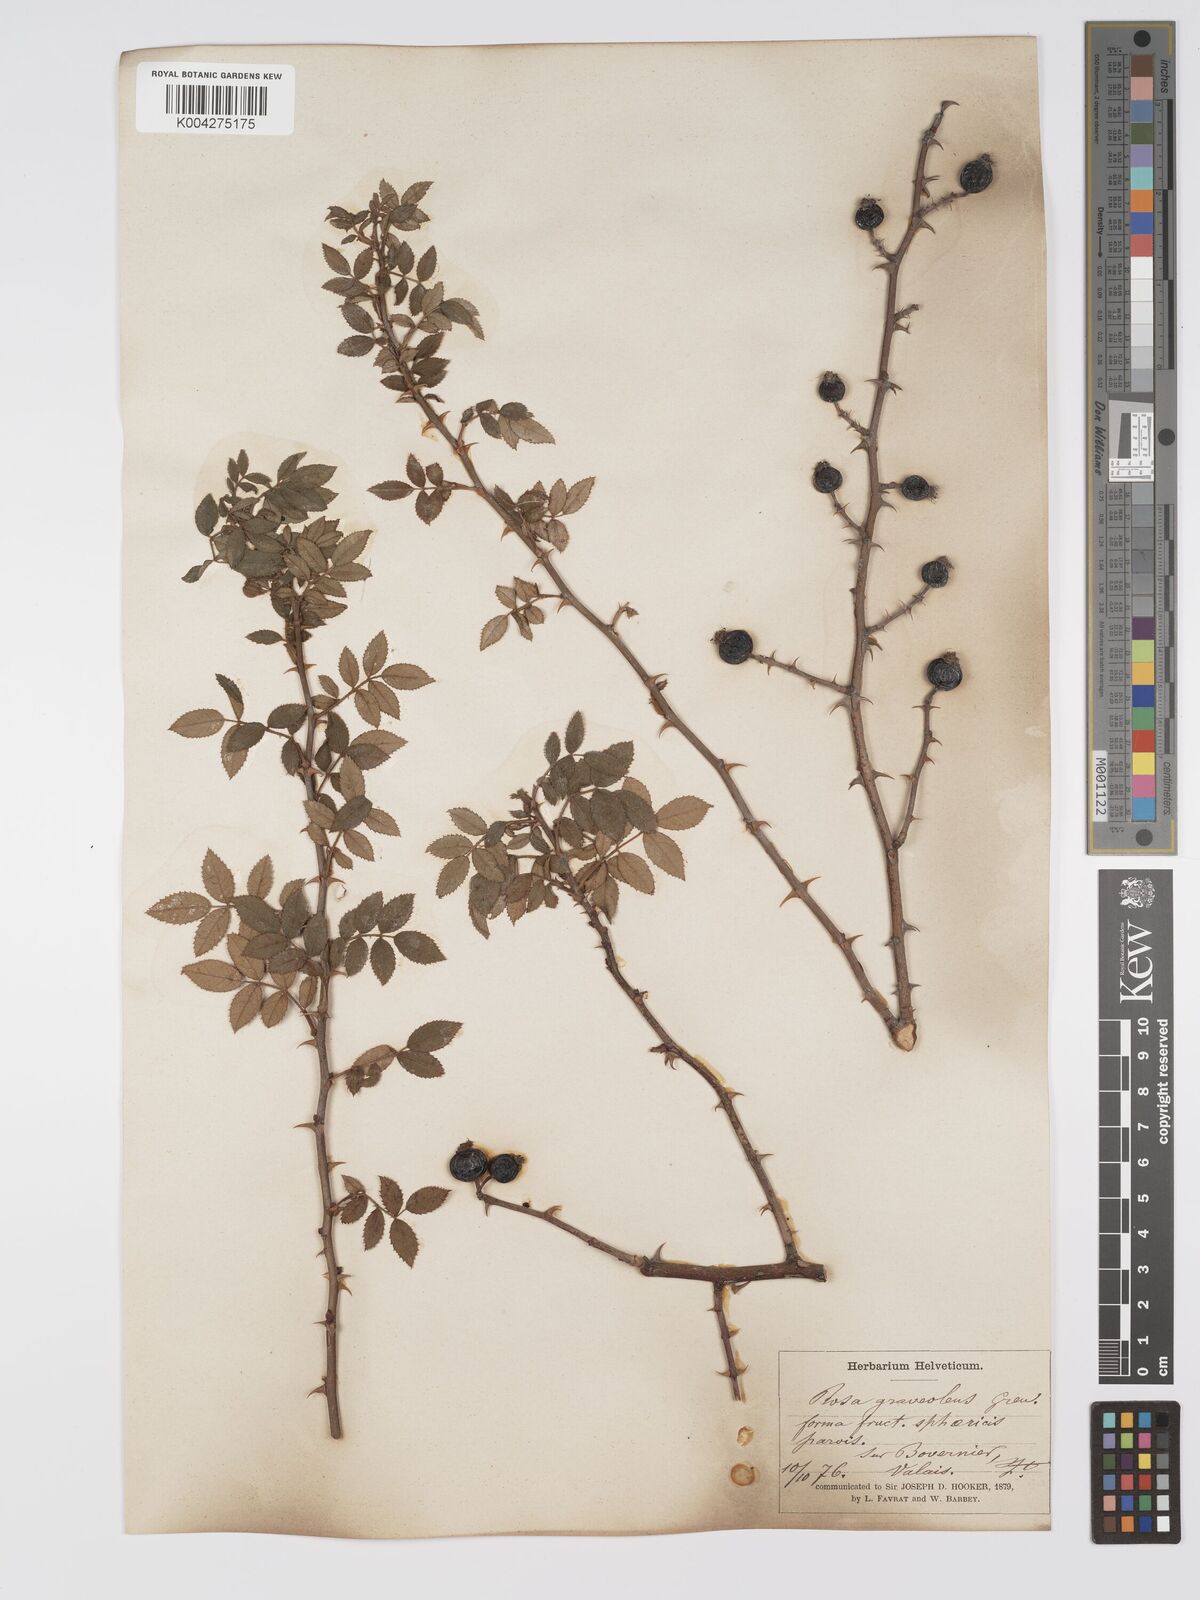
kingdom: Plantae
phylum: Tracheophyta
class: Magnoliopsida
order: Rosales
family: Rosaceae
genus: Rosa
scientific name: Rosa
